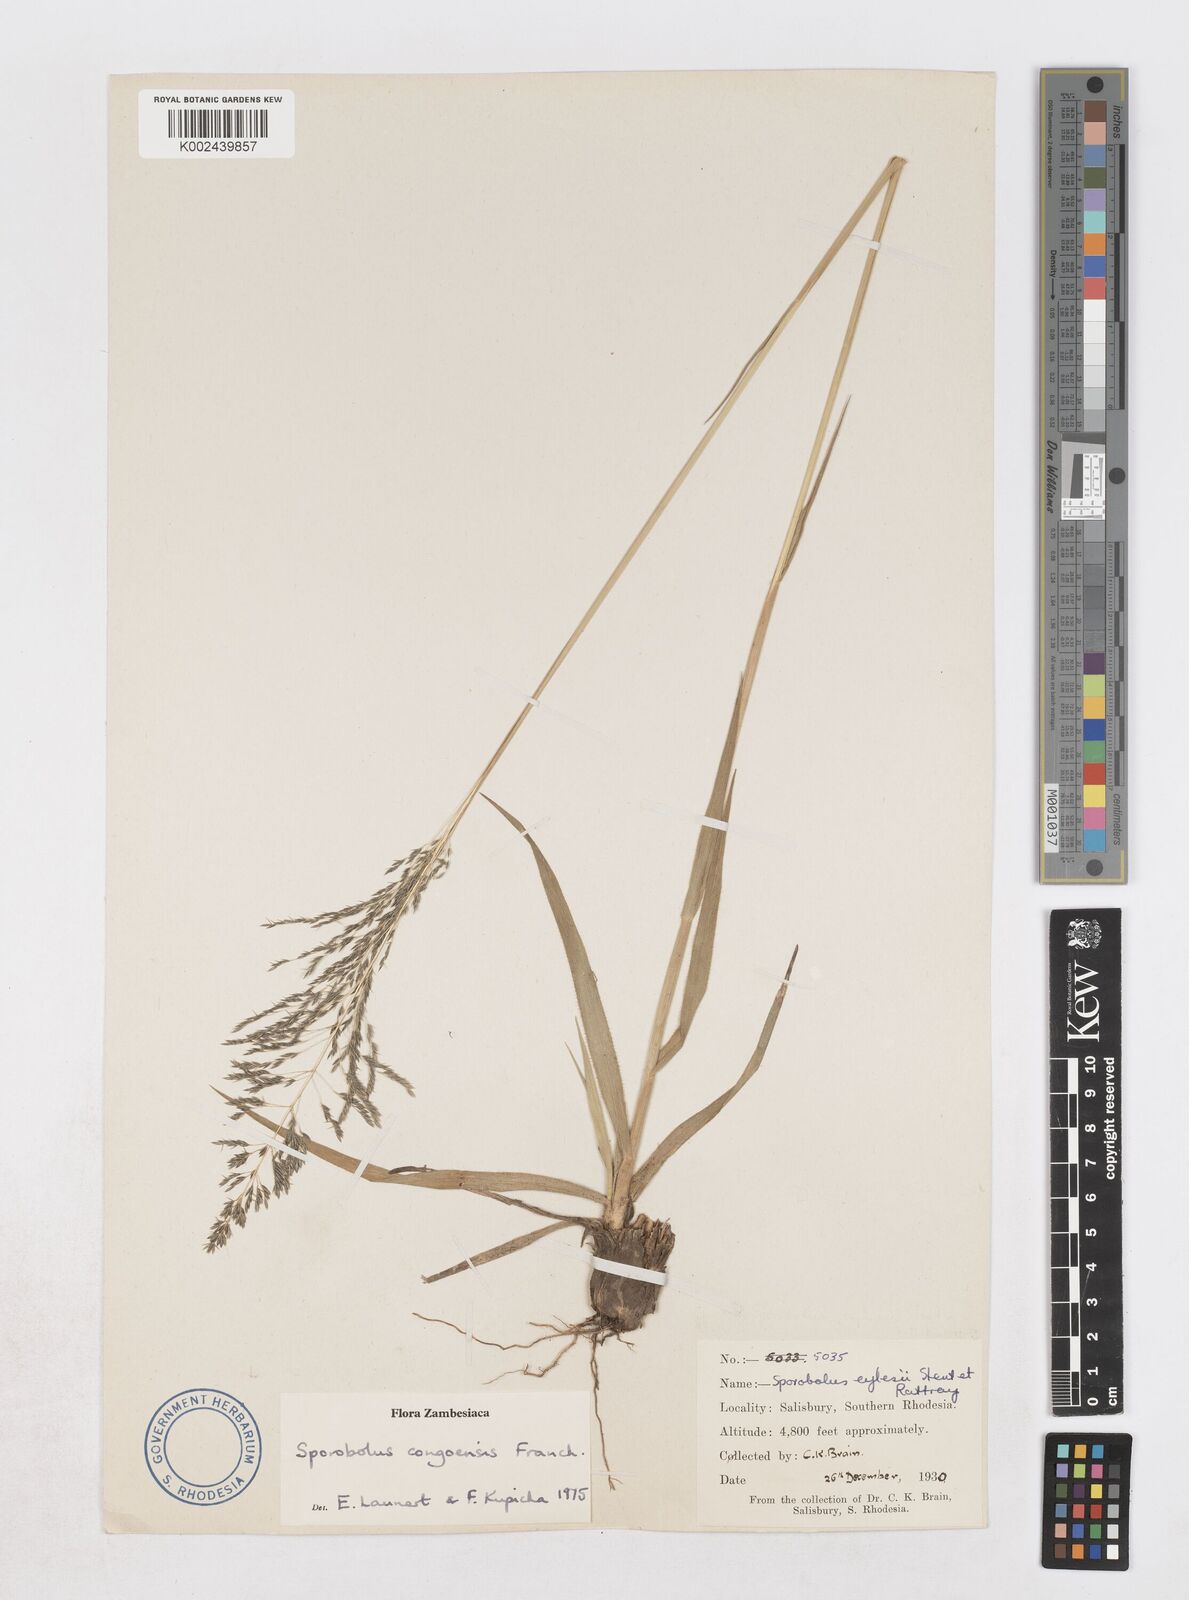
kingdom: Plantae
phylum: Tracheophyta
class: Liliopsida
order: Poales
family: Poaceae
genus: Sporobolus
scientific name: Sporobolus congoensis
